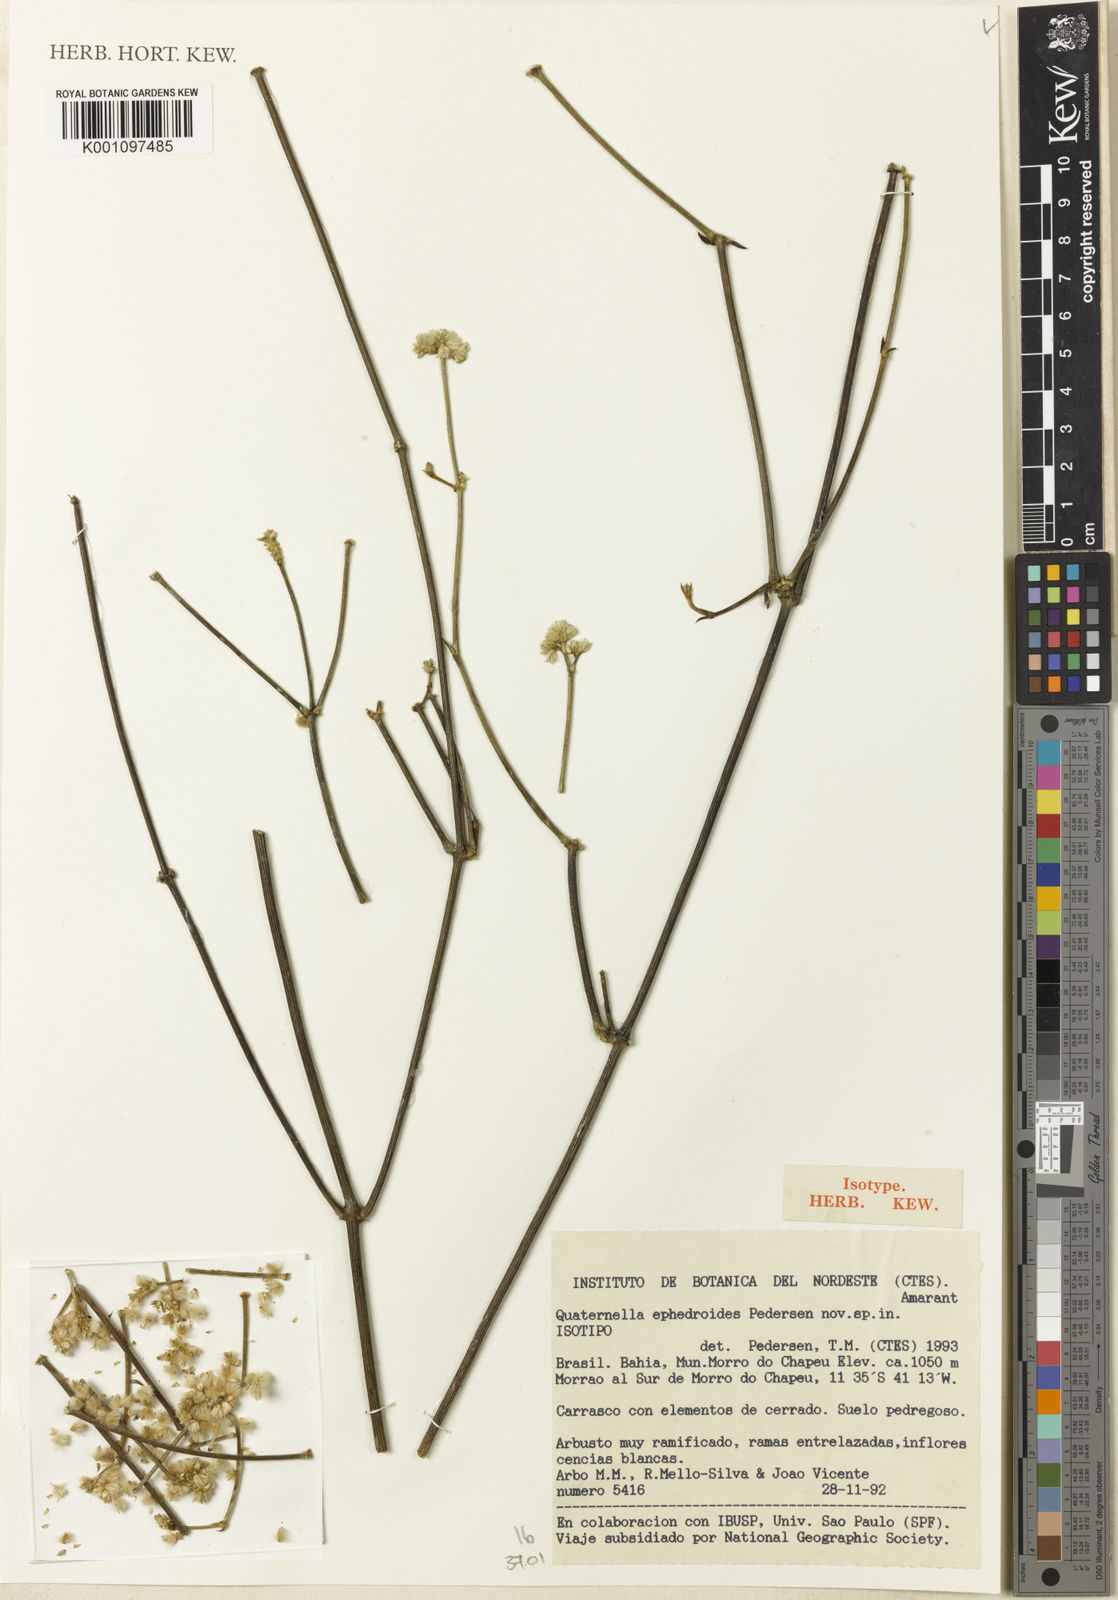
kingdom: Plantae
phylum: Tracheophyta
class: Magnoliopsida
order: Caryophyllales
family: Amaranthaceae
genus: Quaternella
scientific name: Quaternella ephedroides
